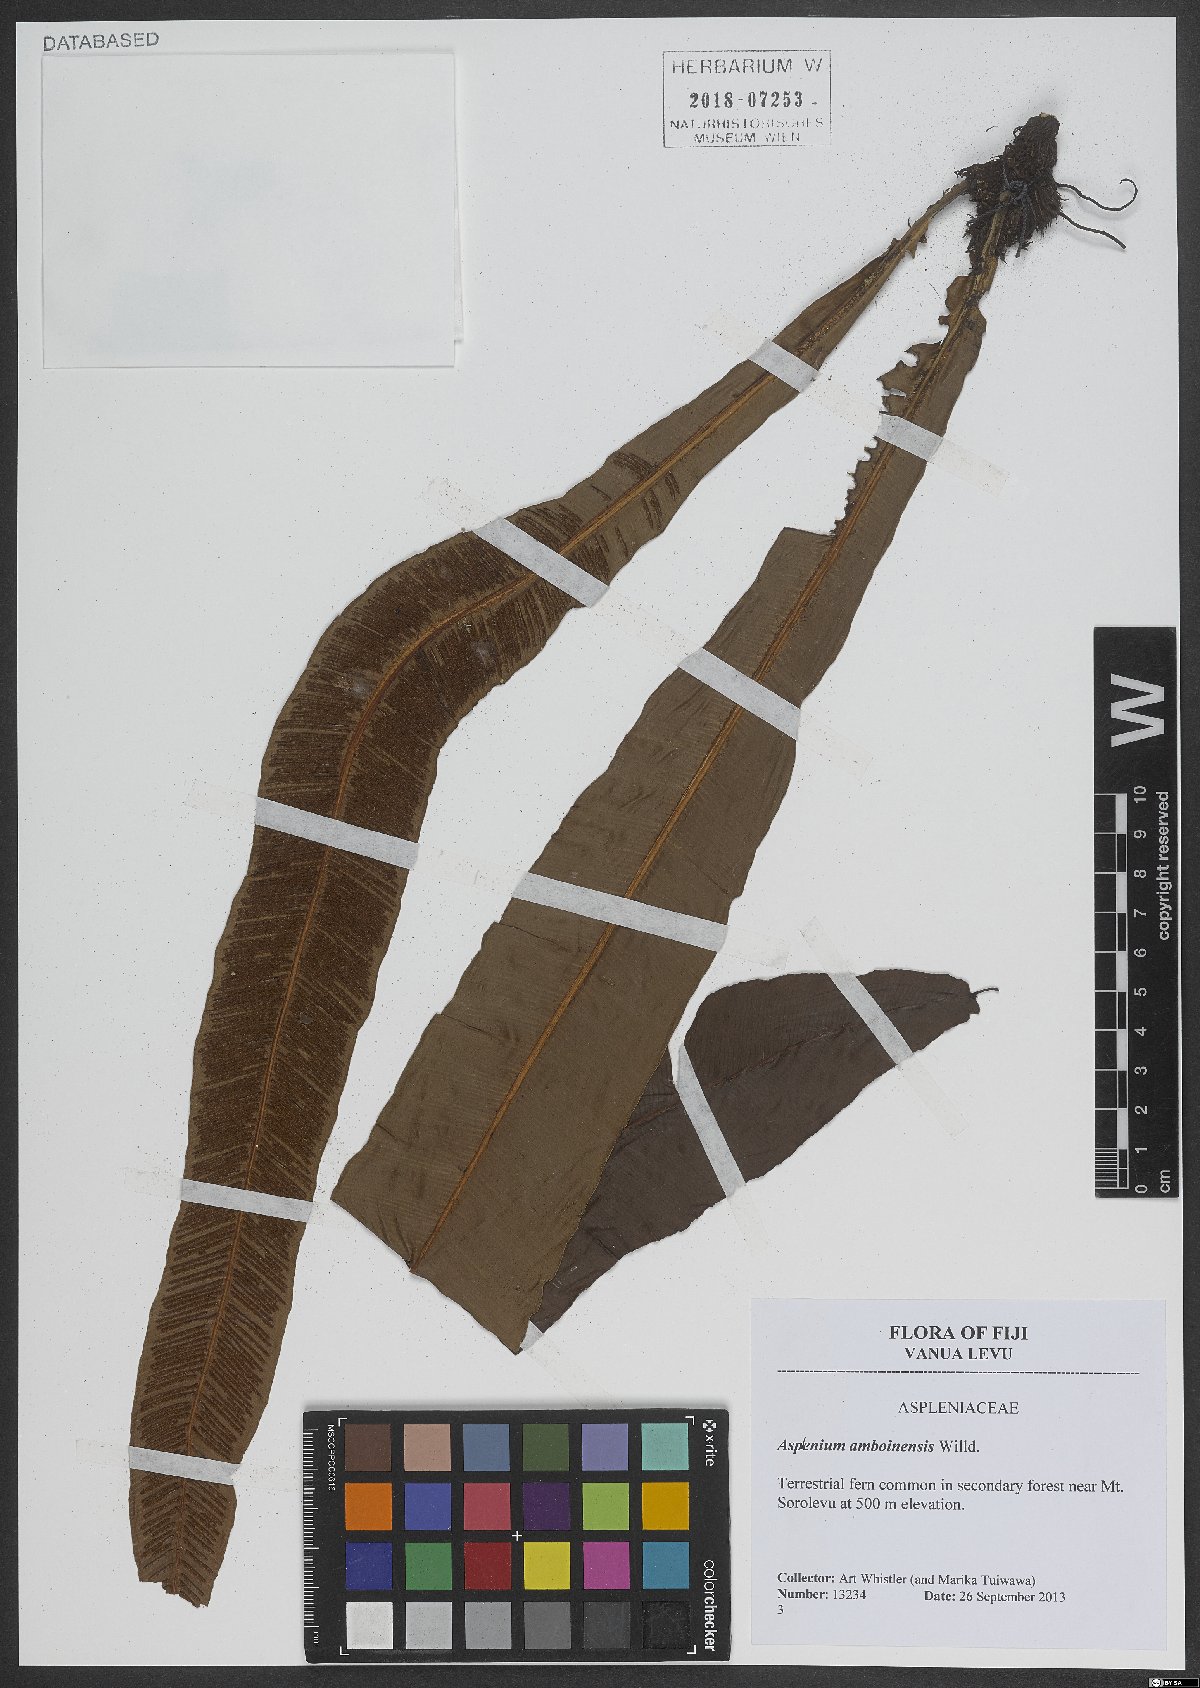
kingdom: Plantae
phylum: Tracheophyta
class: Polypodiopsida
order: Polypodiales
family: Aspleniaceae
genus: Asplenium
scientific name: Asplenium vittaeforme
